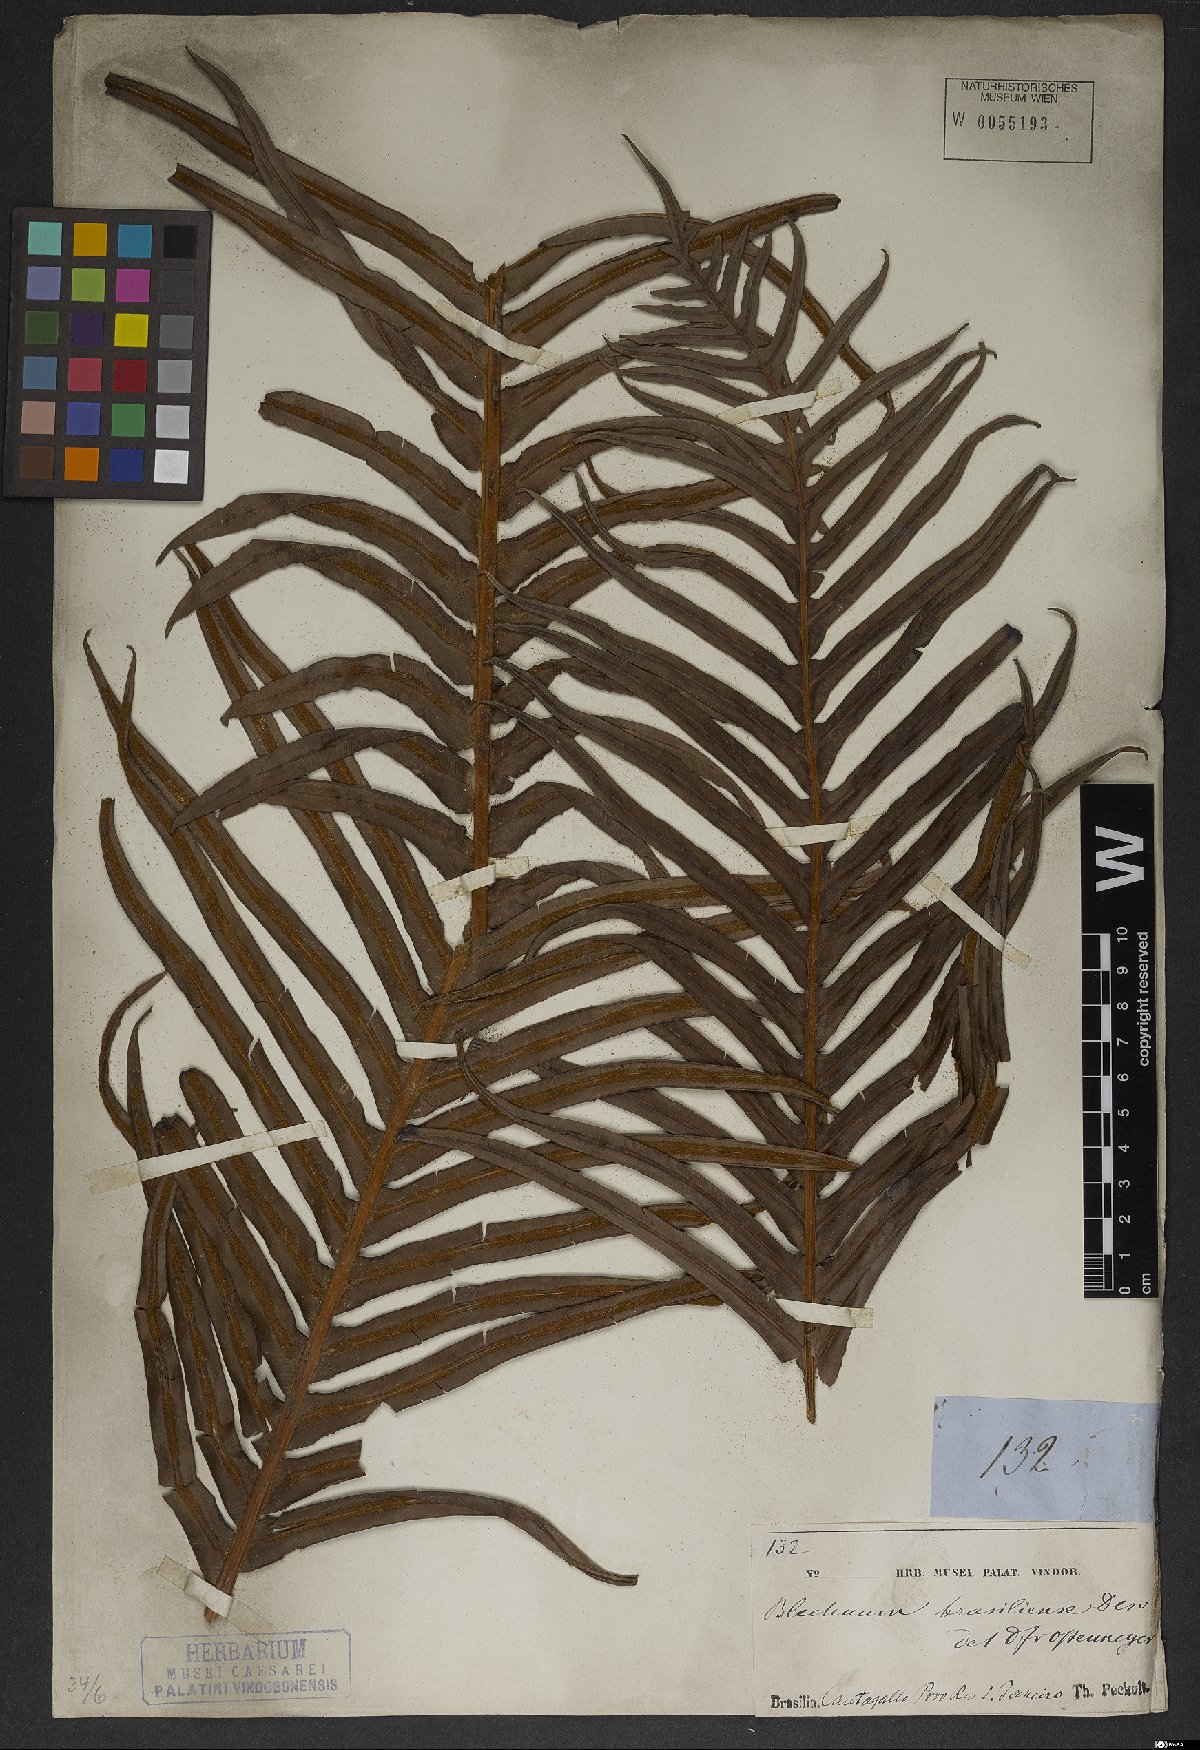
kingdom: Plantae
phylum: Tracheophyta
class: Polypodiopsida
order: Polypodiales
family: Blechnaceae
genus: Neoblechnum
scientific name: Neoblechnum brasiliense
